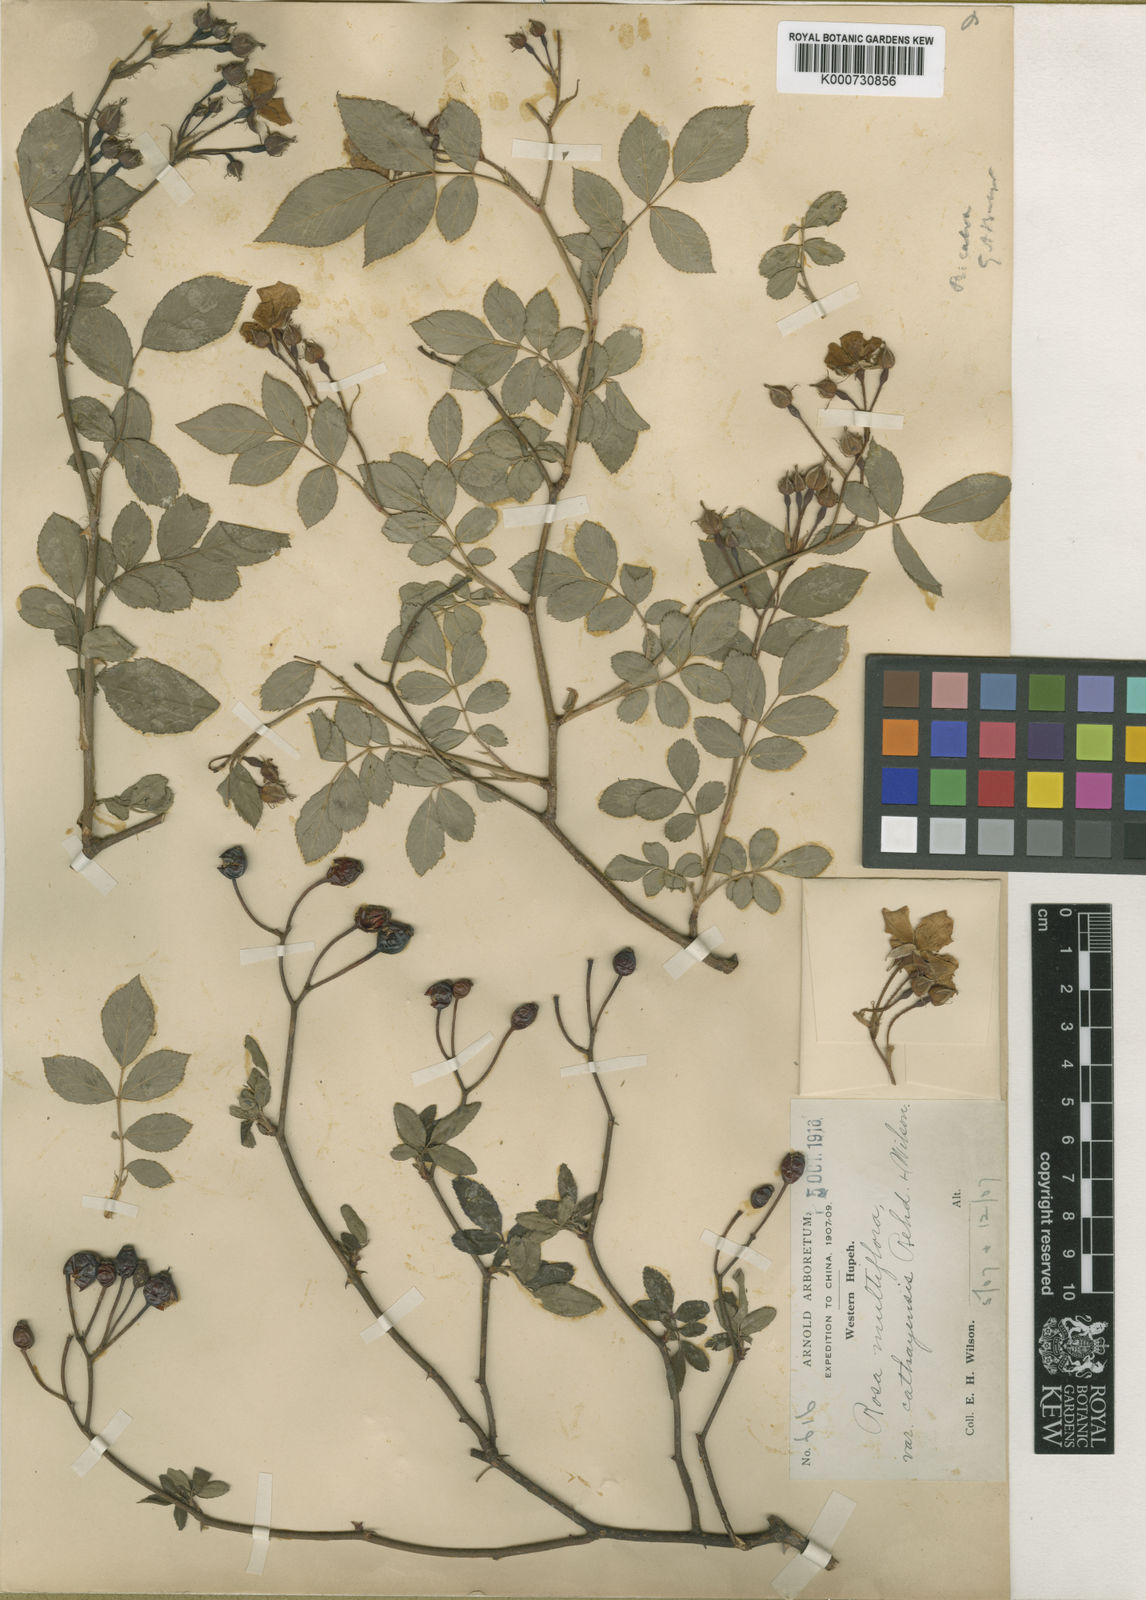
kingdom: Plantae
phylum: Tracheophyta
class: Magnoliopsida
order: Rosales
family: Rosaceae
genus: Rosa
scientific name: Rosa
